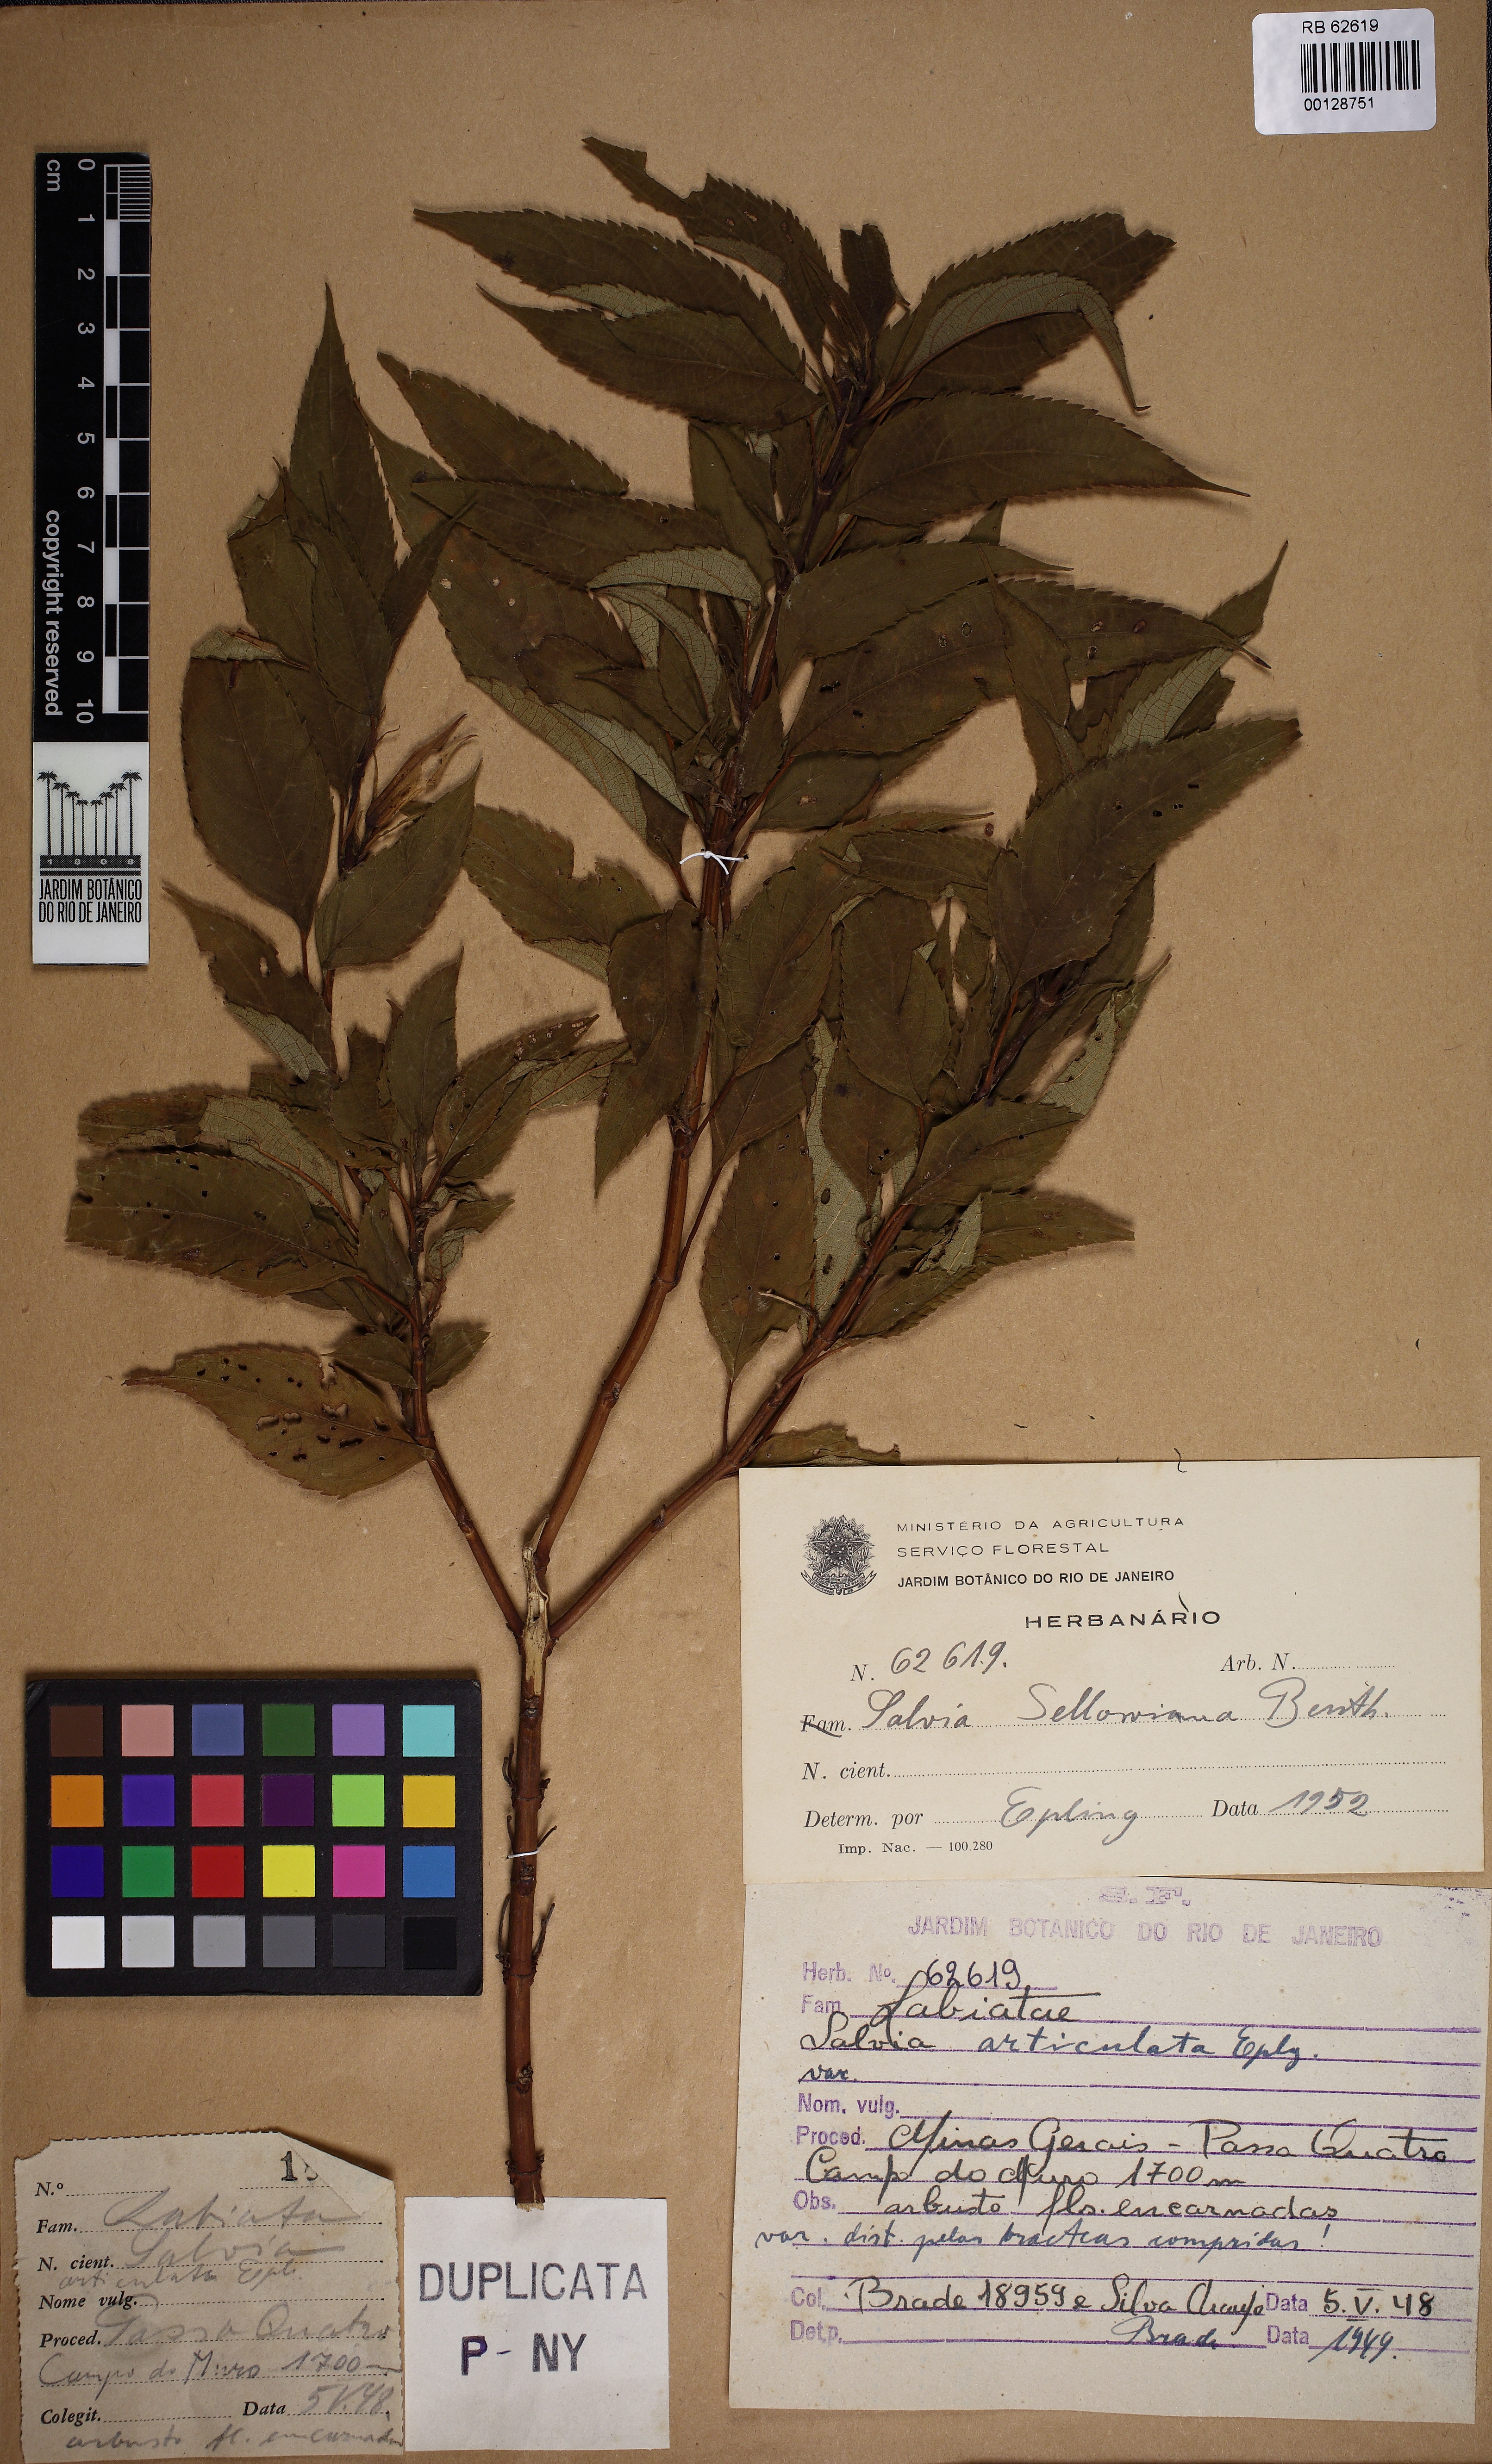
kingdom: Plantae
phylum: Tracheophyta
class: Magnoliopsida
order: Lamiales
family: Lamiaceae
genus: Salvia
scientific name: Salvia selleana
